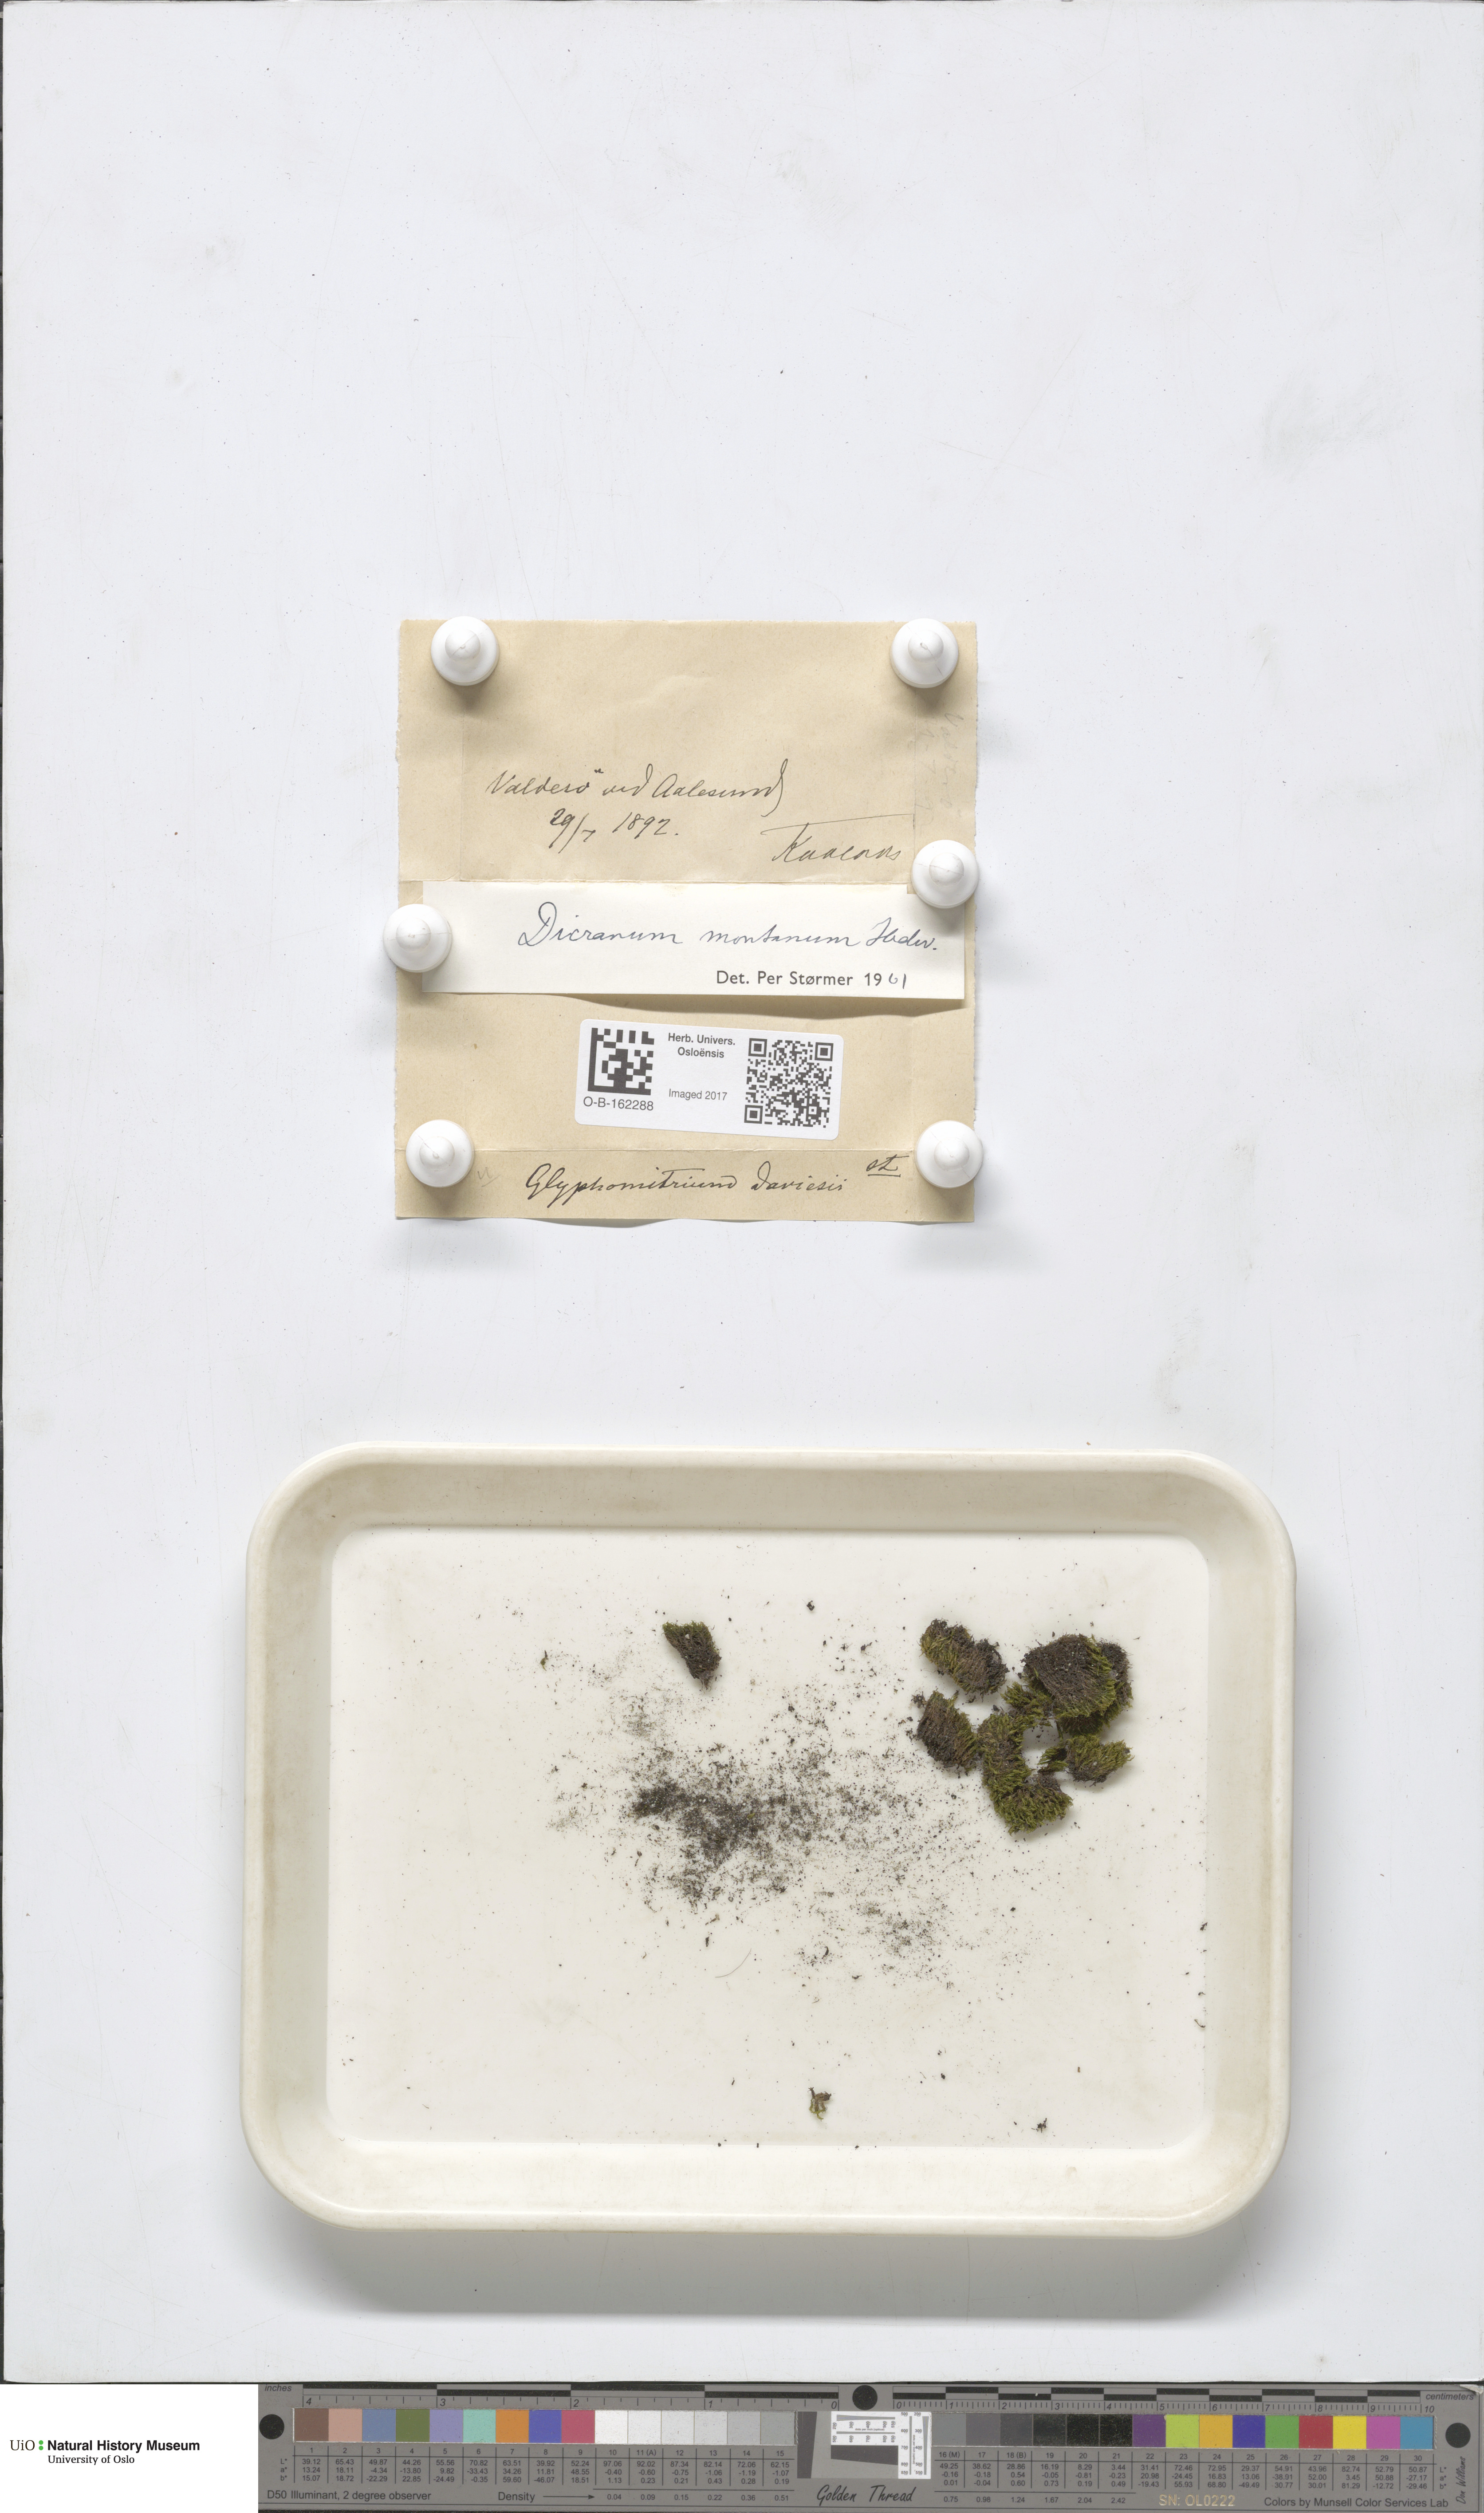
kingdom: Plantae
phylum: Bryophyta
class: Bryopsida
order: Dicranales
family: Dicranaceae
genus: Orthodicranum
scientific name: Orthodicranum montanum
